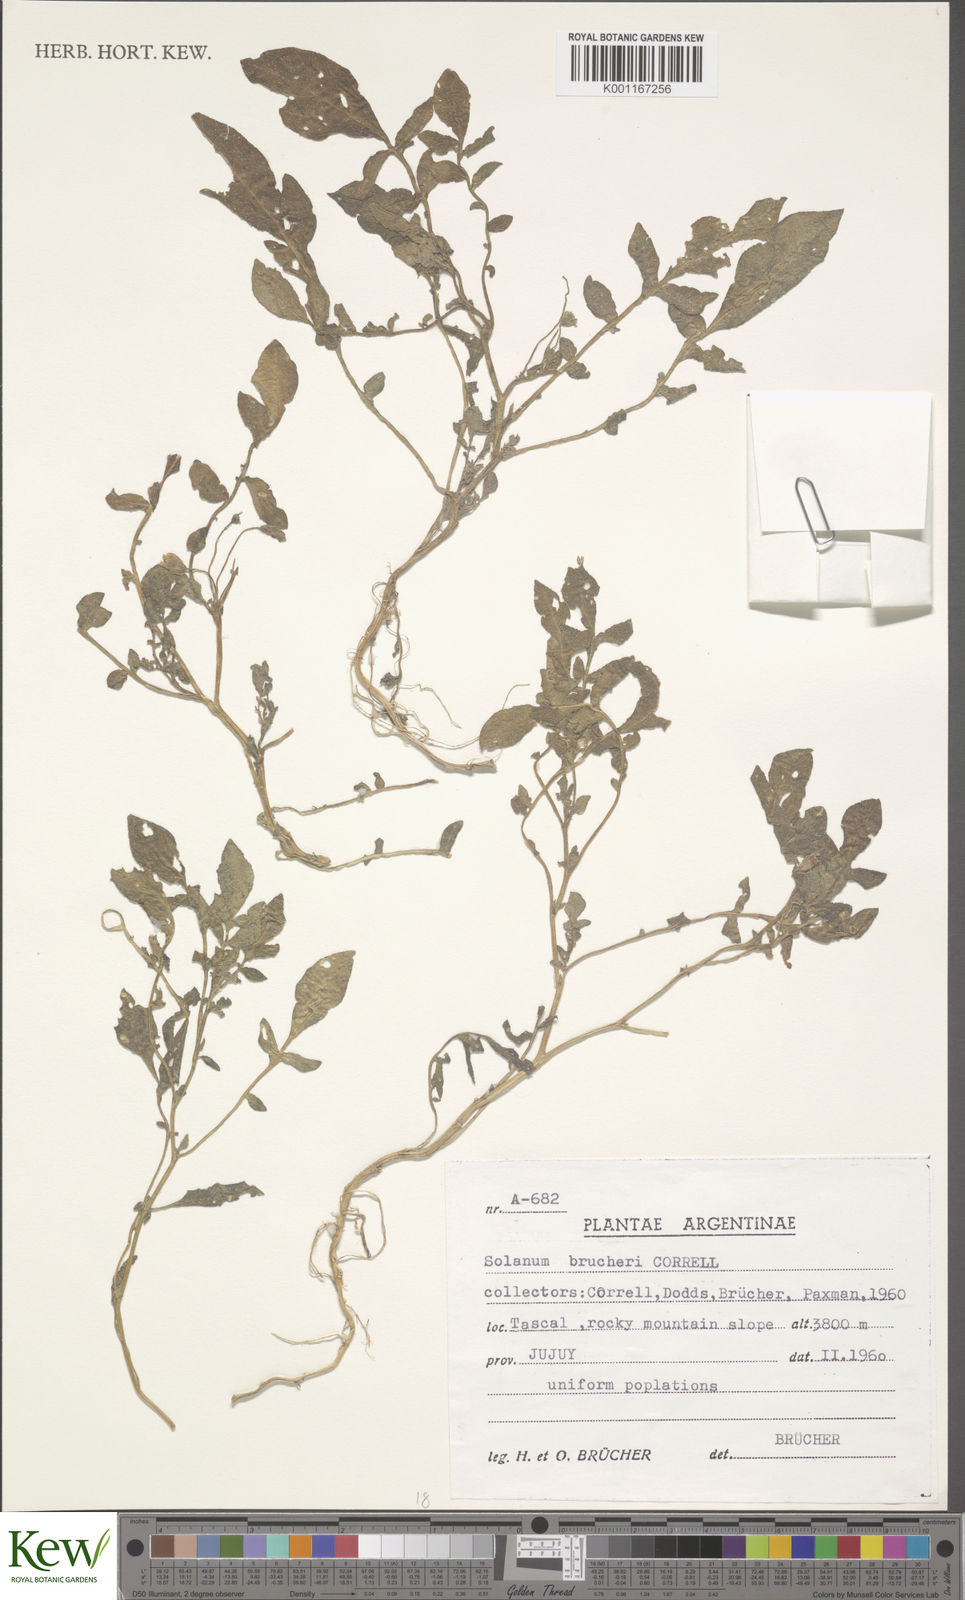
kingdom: Plantae
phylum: Tracheophyta
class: Magnoliopsida
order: Solanales
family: Solanaceae
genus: Solanum
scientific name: Solanum brevicaule
